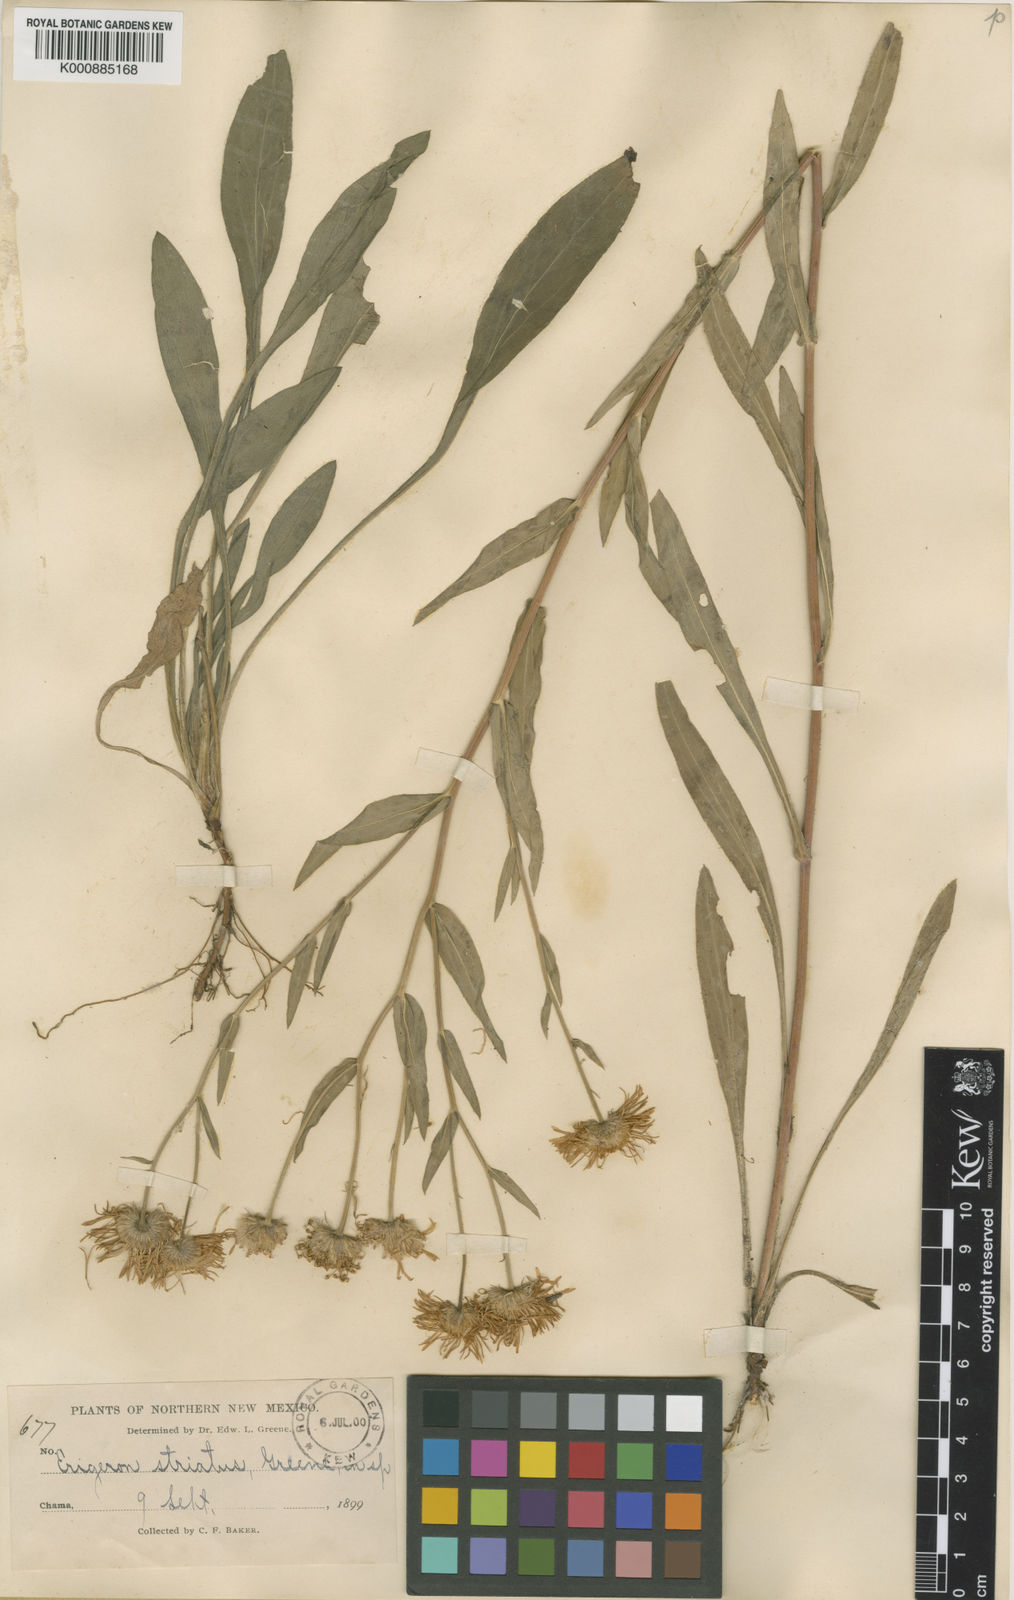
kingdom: Plantae
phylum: Tracheophyta
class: Magnoliopsida
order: Asterales
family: Asteraceae
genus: Erigeron
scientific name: Erigeron
